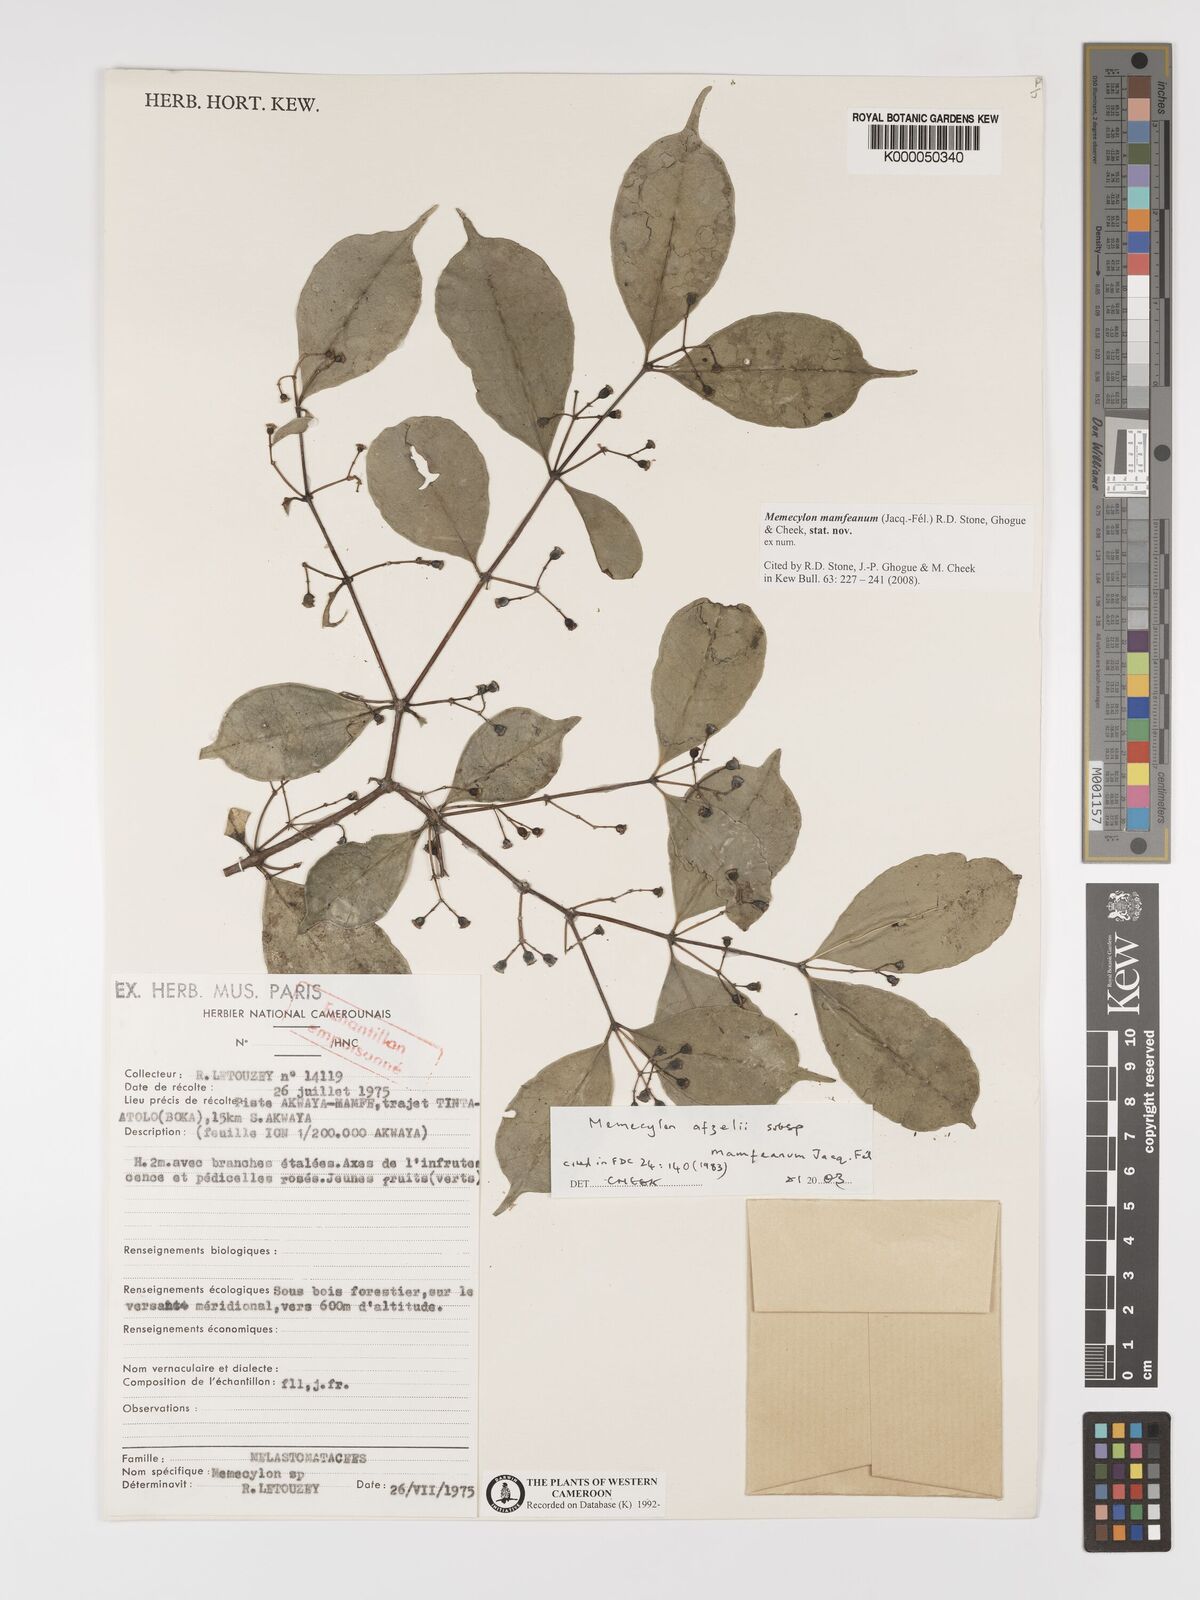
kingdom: Plantae
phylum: Tracheophyta
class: Magnoliopsida
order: Myrtales
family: Melastomataceae
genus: Memecylon
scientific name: Memecylon
